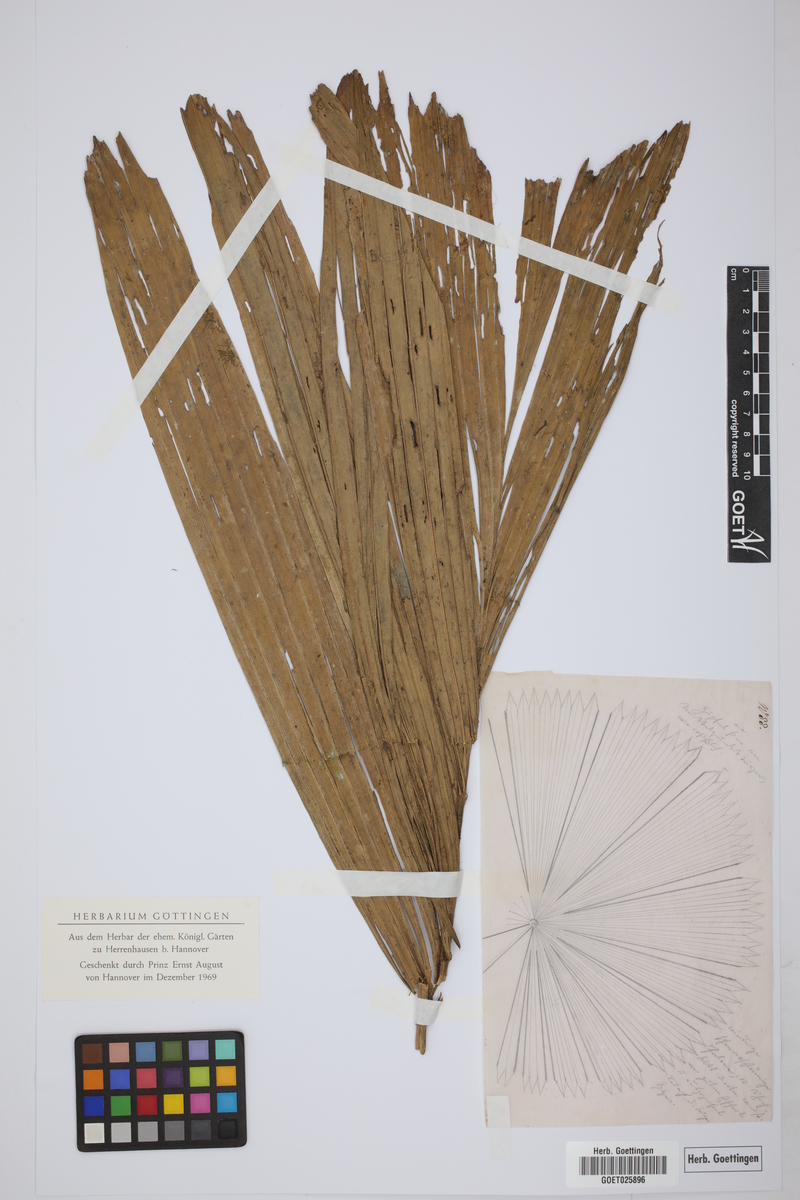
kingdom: Plantae
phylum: Tracheophyta
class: Liliopsida
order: Arecales
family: Arecaceae
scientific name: Arecaceae
